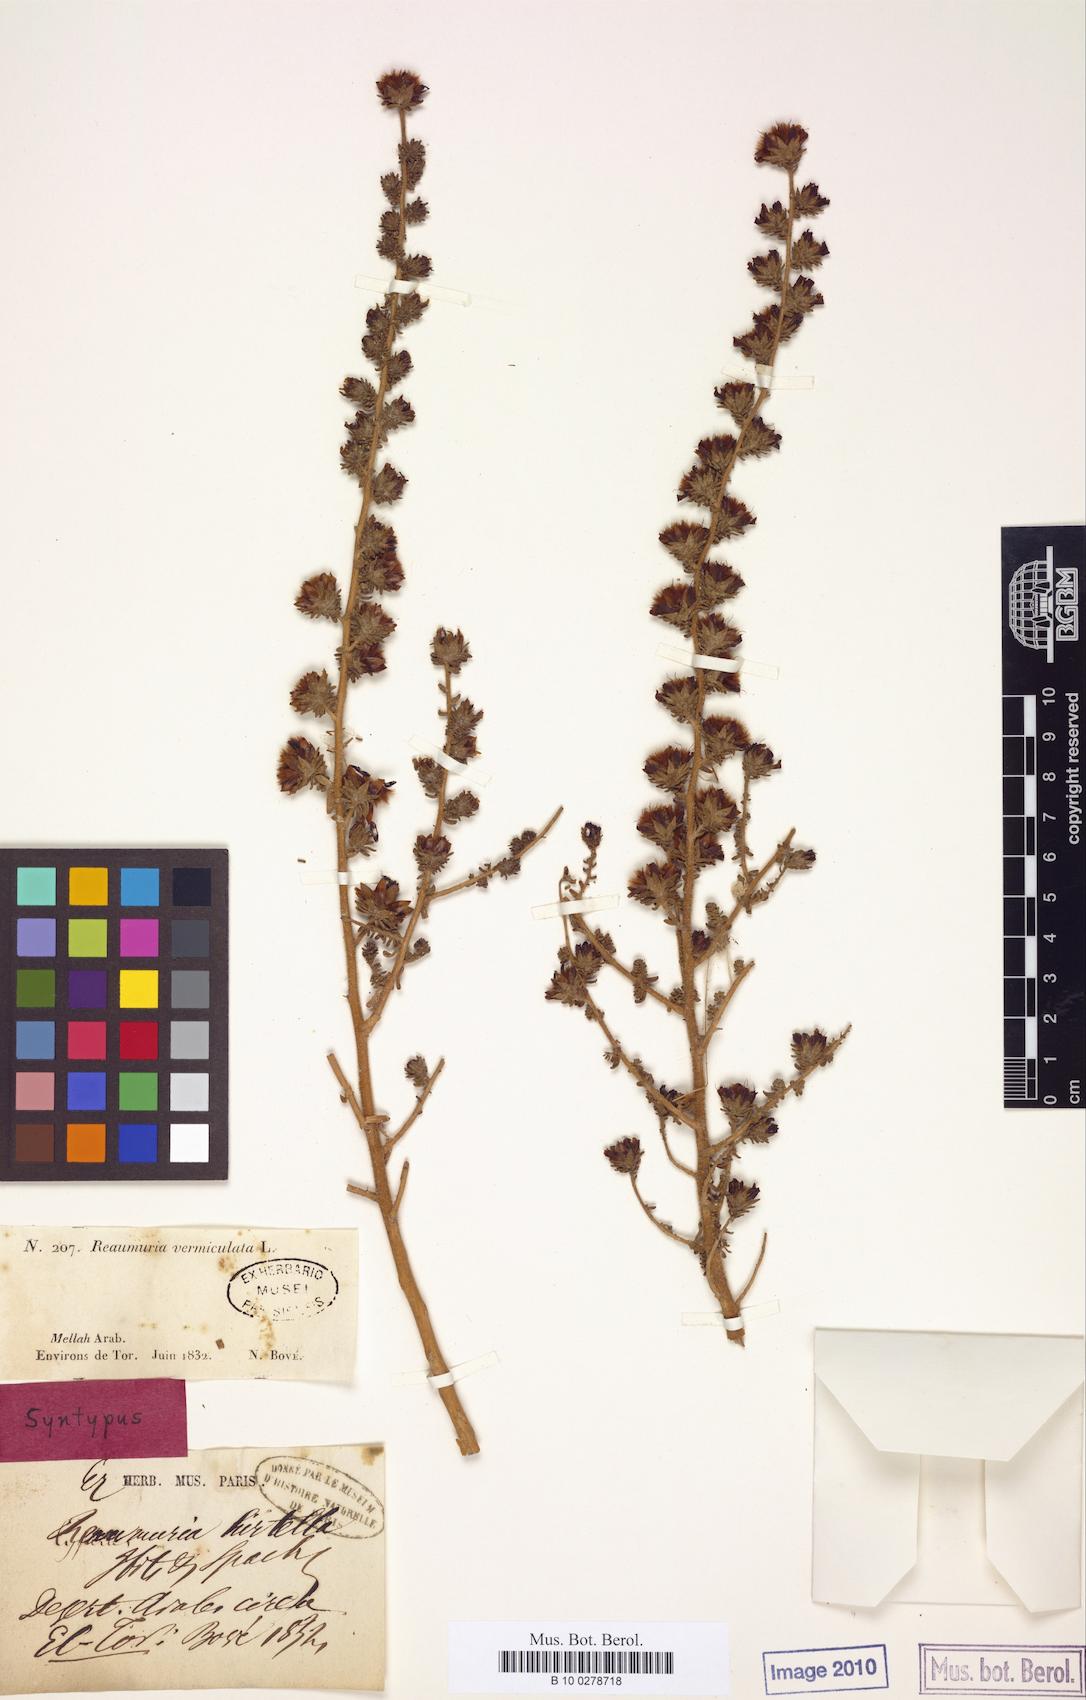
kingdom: Plantae
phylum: Tracheophyta
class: Magnoliopsida
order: Caryophyllales
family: Tamaricaceae
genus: Reaumuria
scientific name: Reaumuria hirtella
